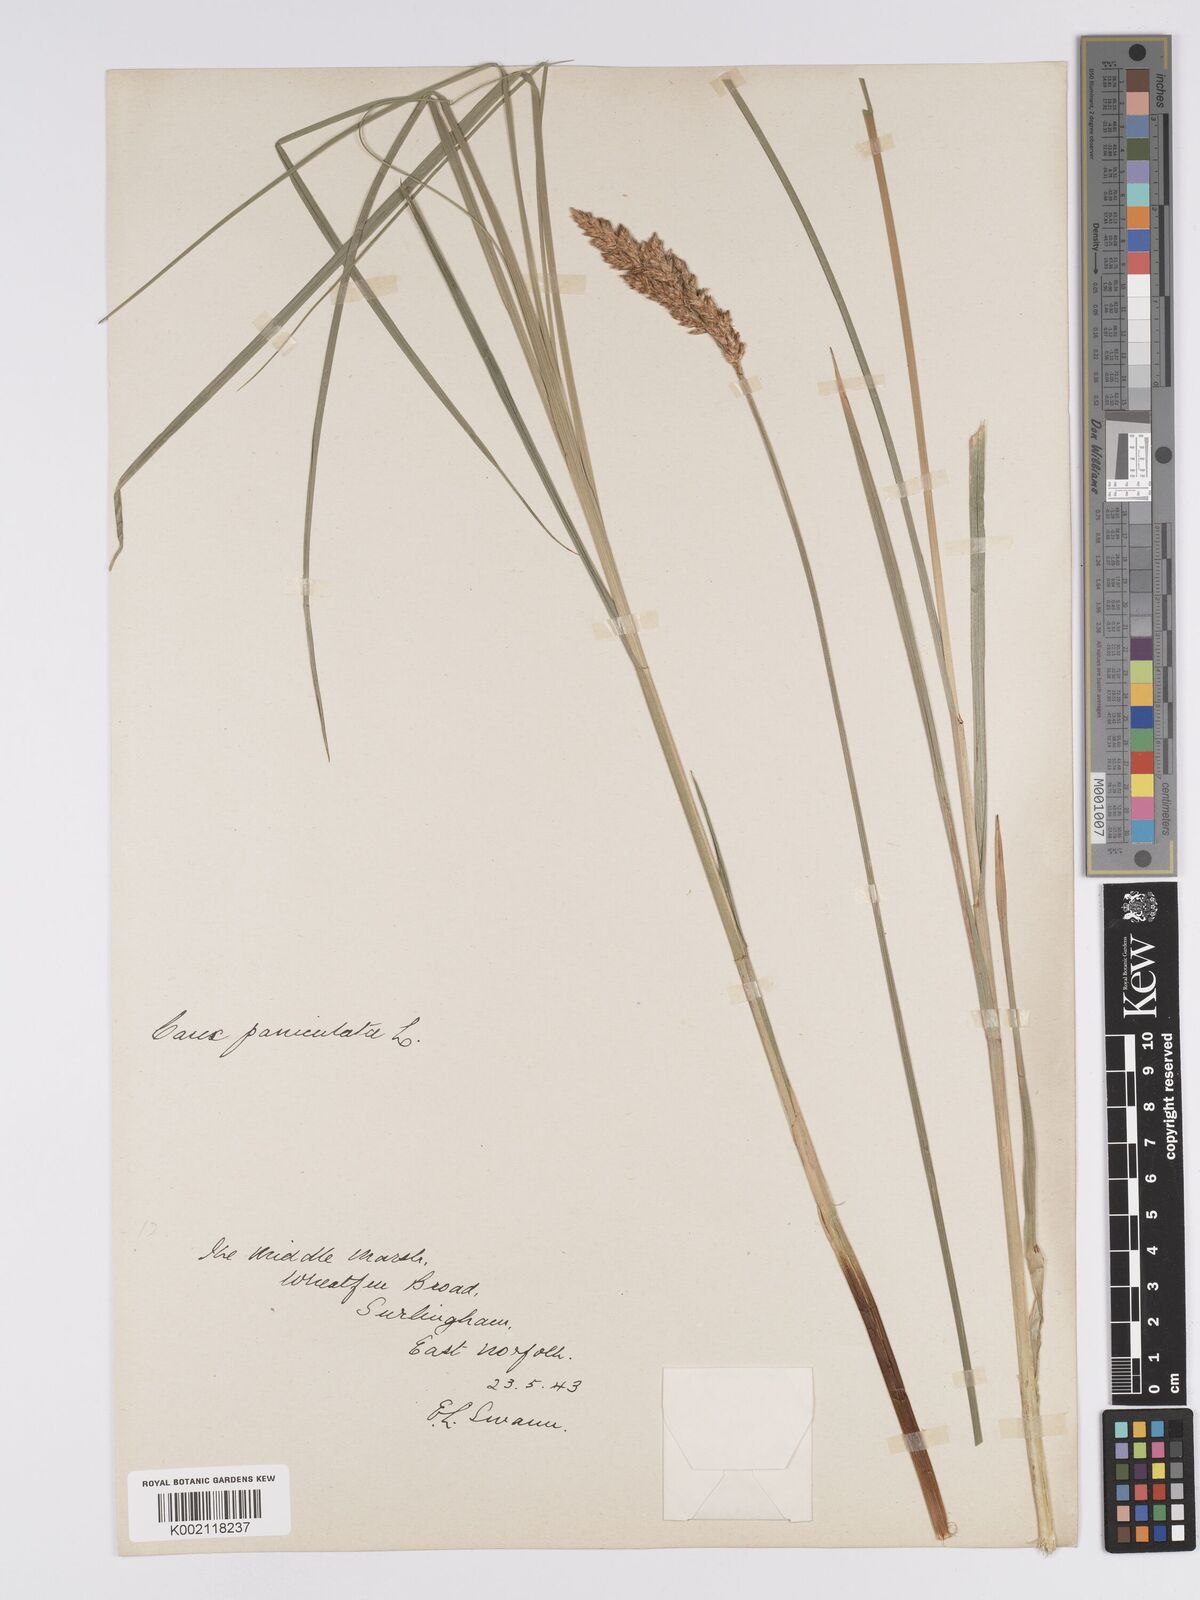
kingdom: Plantae
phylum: Tracheophyta
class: Liliopsida
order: Poales
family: Cyperaceae
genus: Carex
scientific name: Carex paniculata
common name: Greater tussock-sedge
